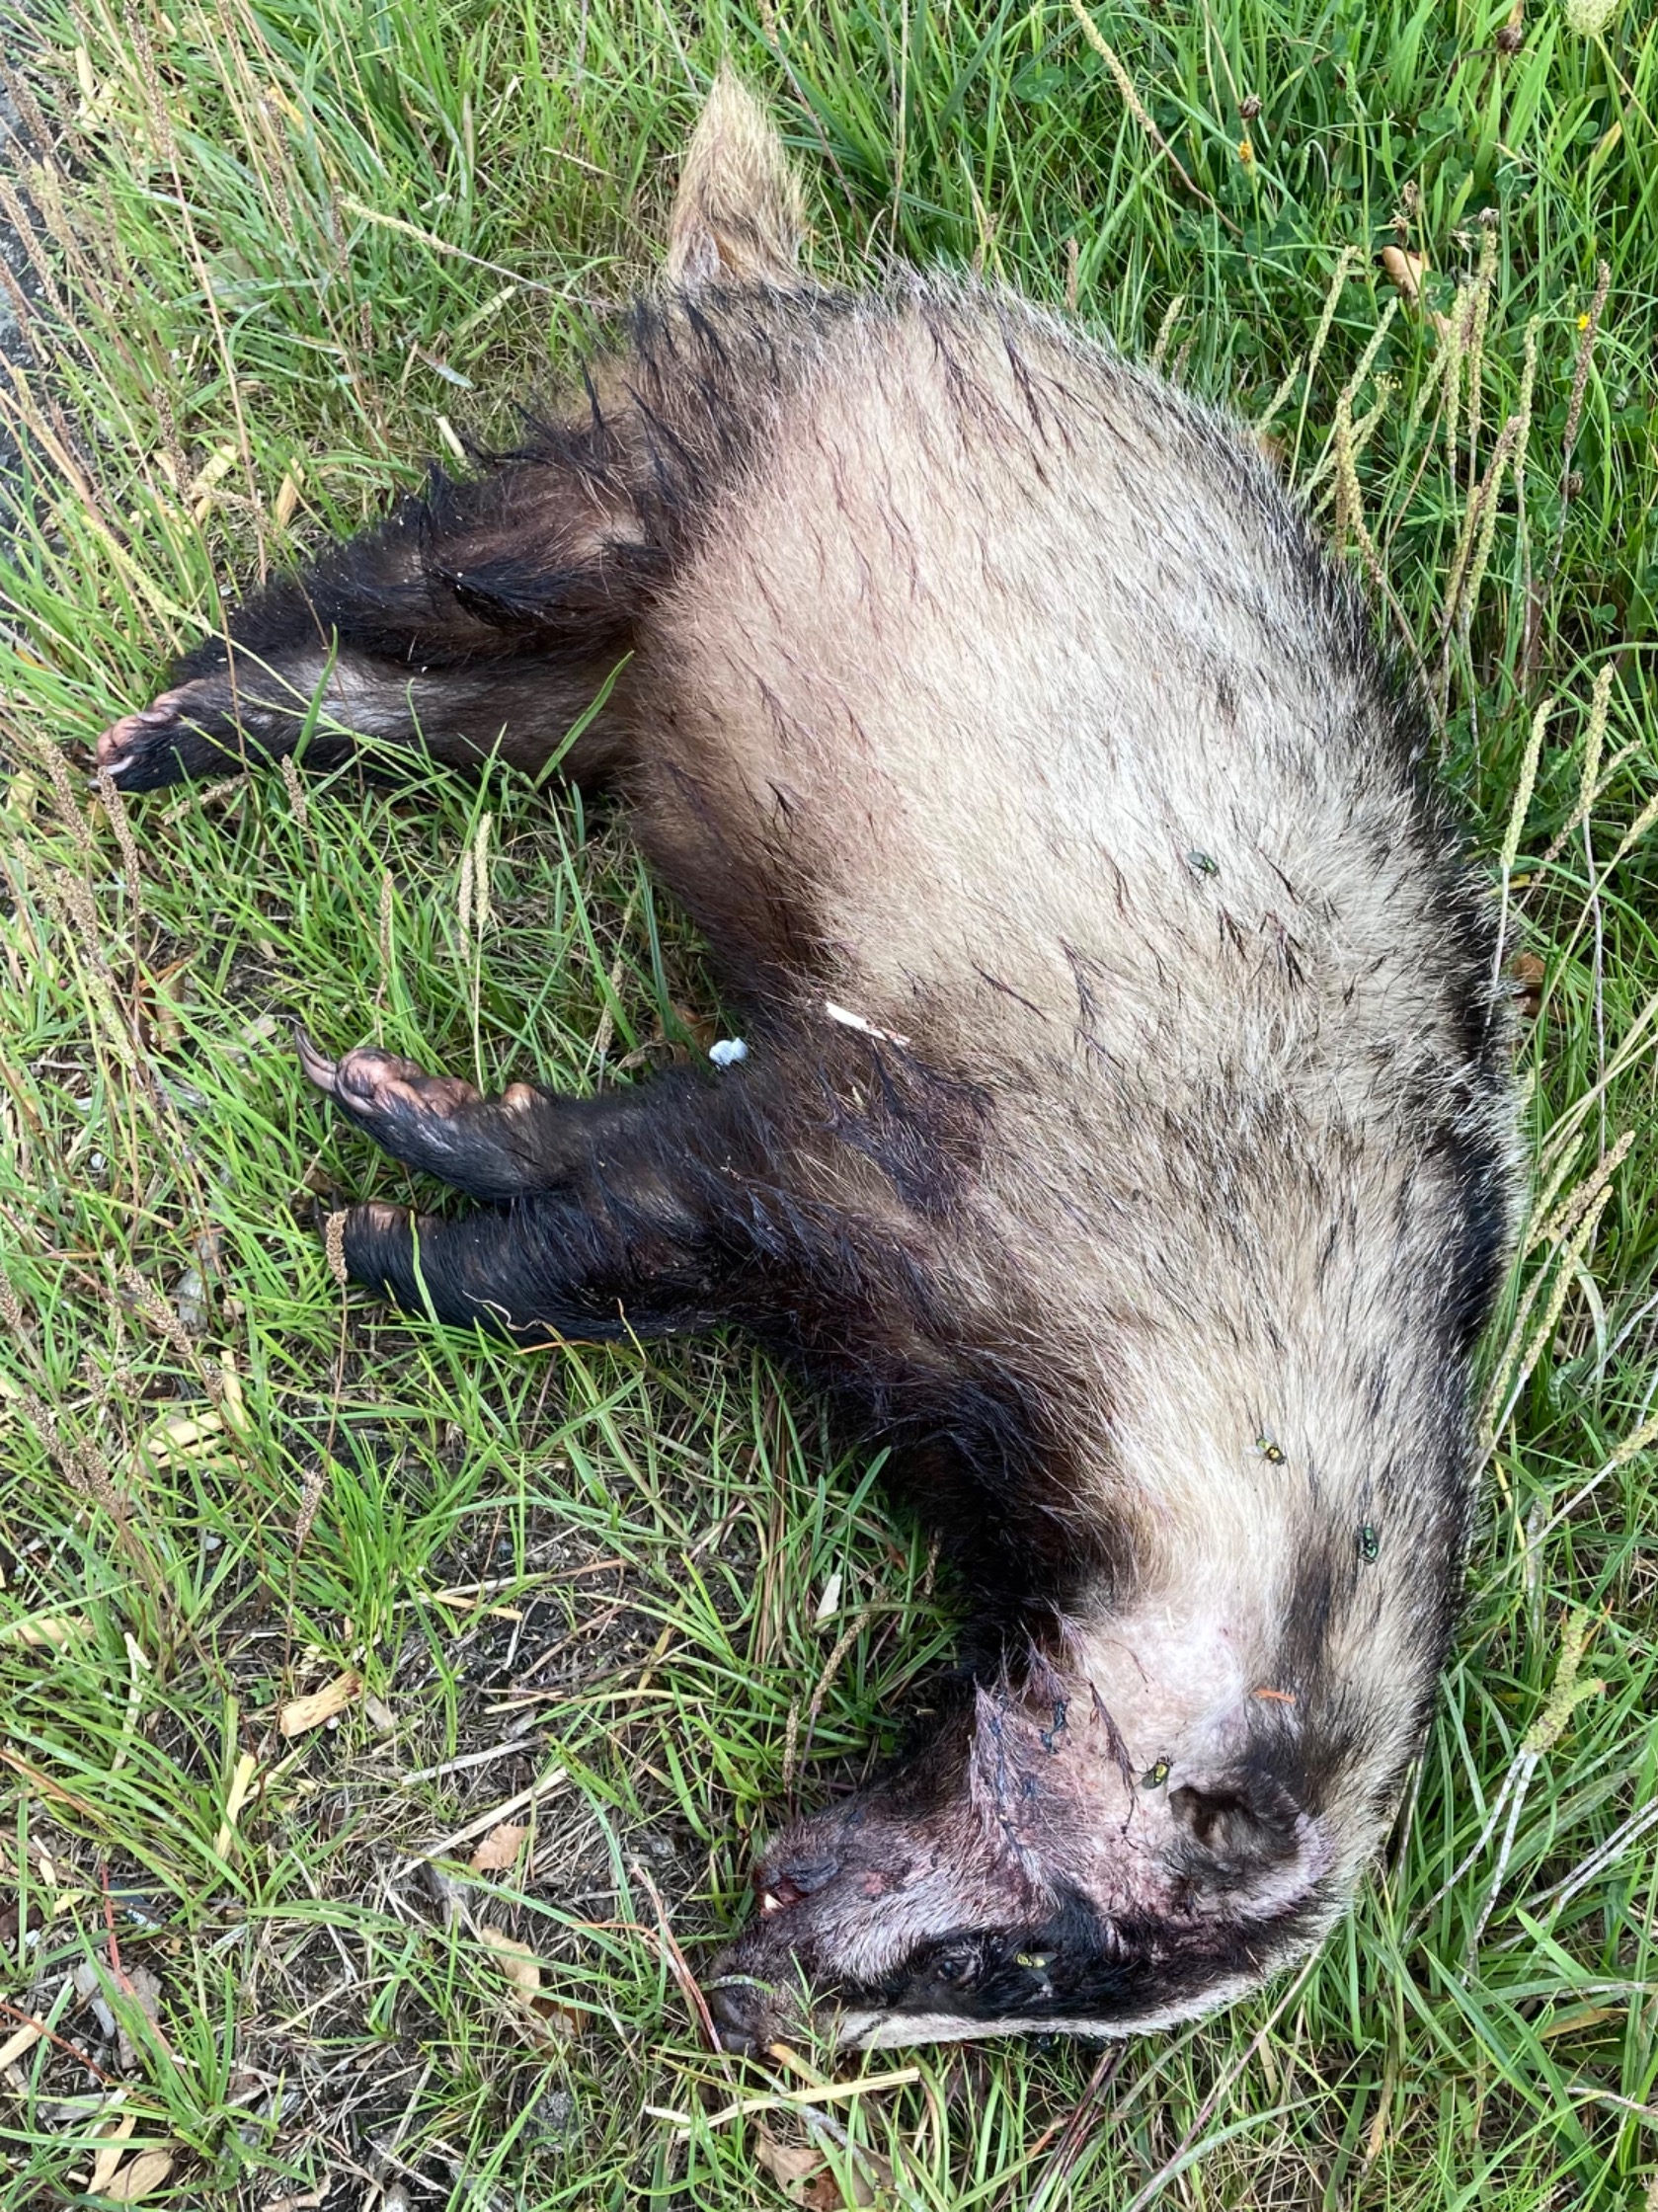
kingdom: Animalia
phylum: Chordata
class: Mammalia
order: Carnivora
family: Mustelidae
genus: Meles
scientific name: Meles meles
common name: Grævling
